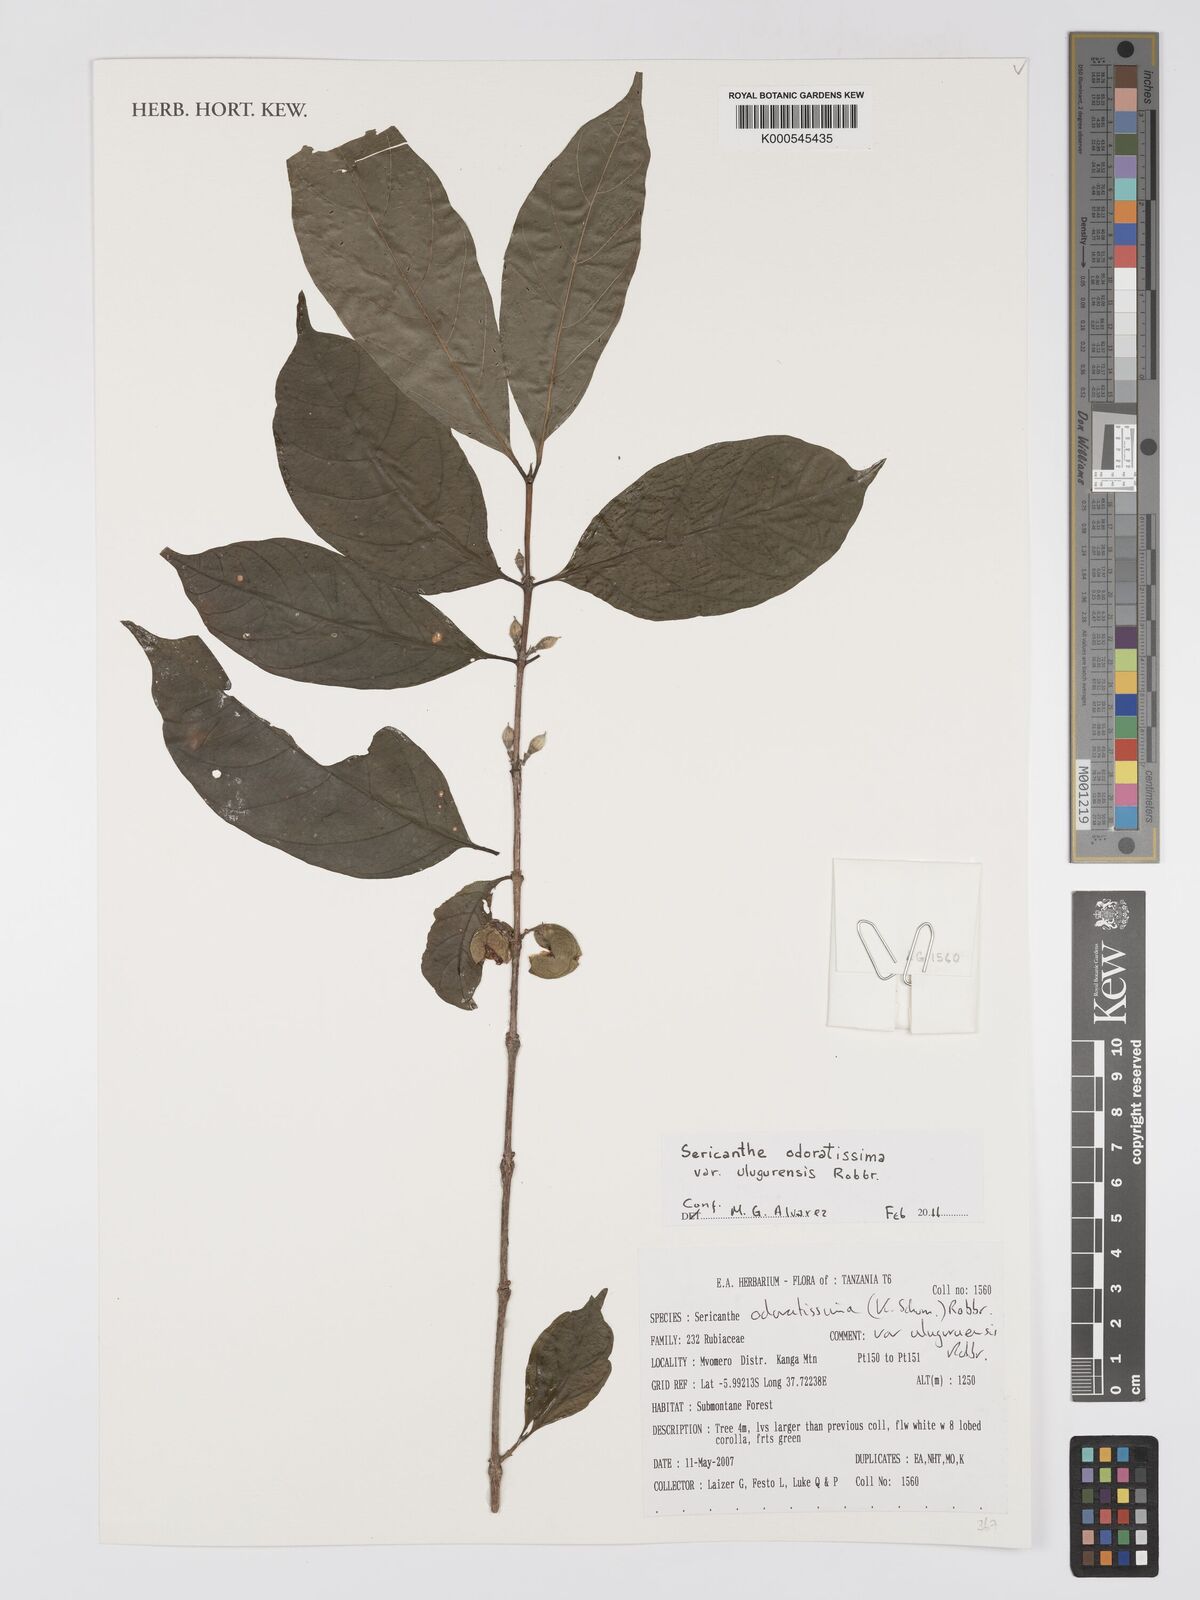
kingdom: Plantae
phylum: Tracheophyta
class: Magnoliopsida
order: Gentianales
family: Rubiaceae
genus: Sericanthe
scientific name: Sericanthe odoratissima
